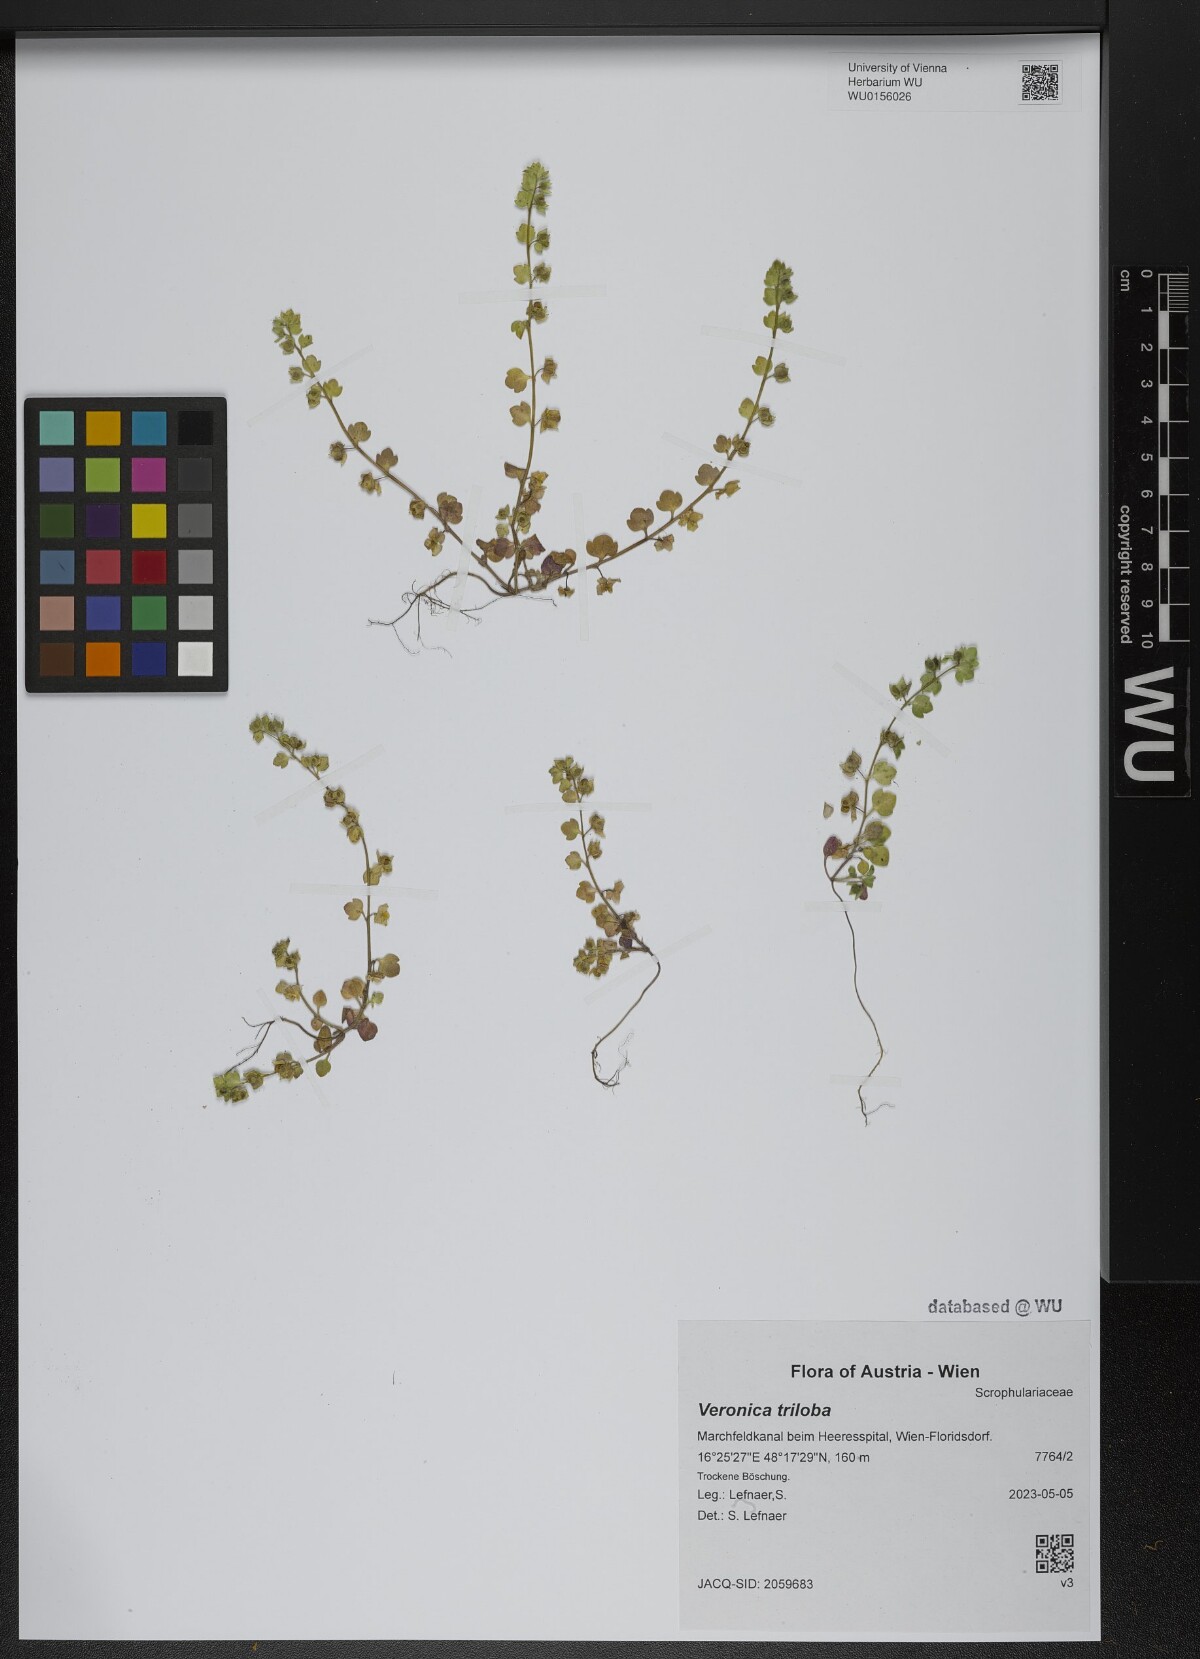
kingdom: Plantae
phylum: Tracheophyta
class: Magnoliopsida
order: Lamiales
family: Plantaginaceae
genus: Veronica
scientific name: Veronica triloba
